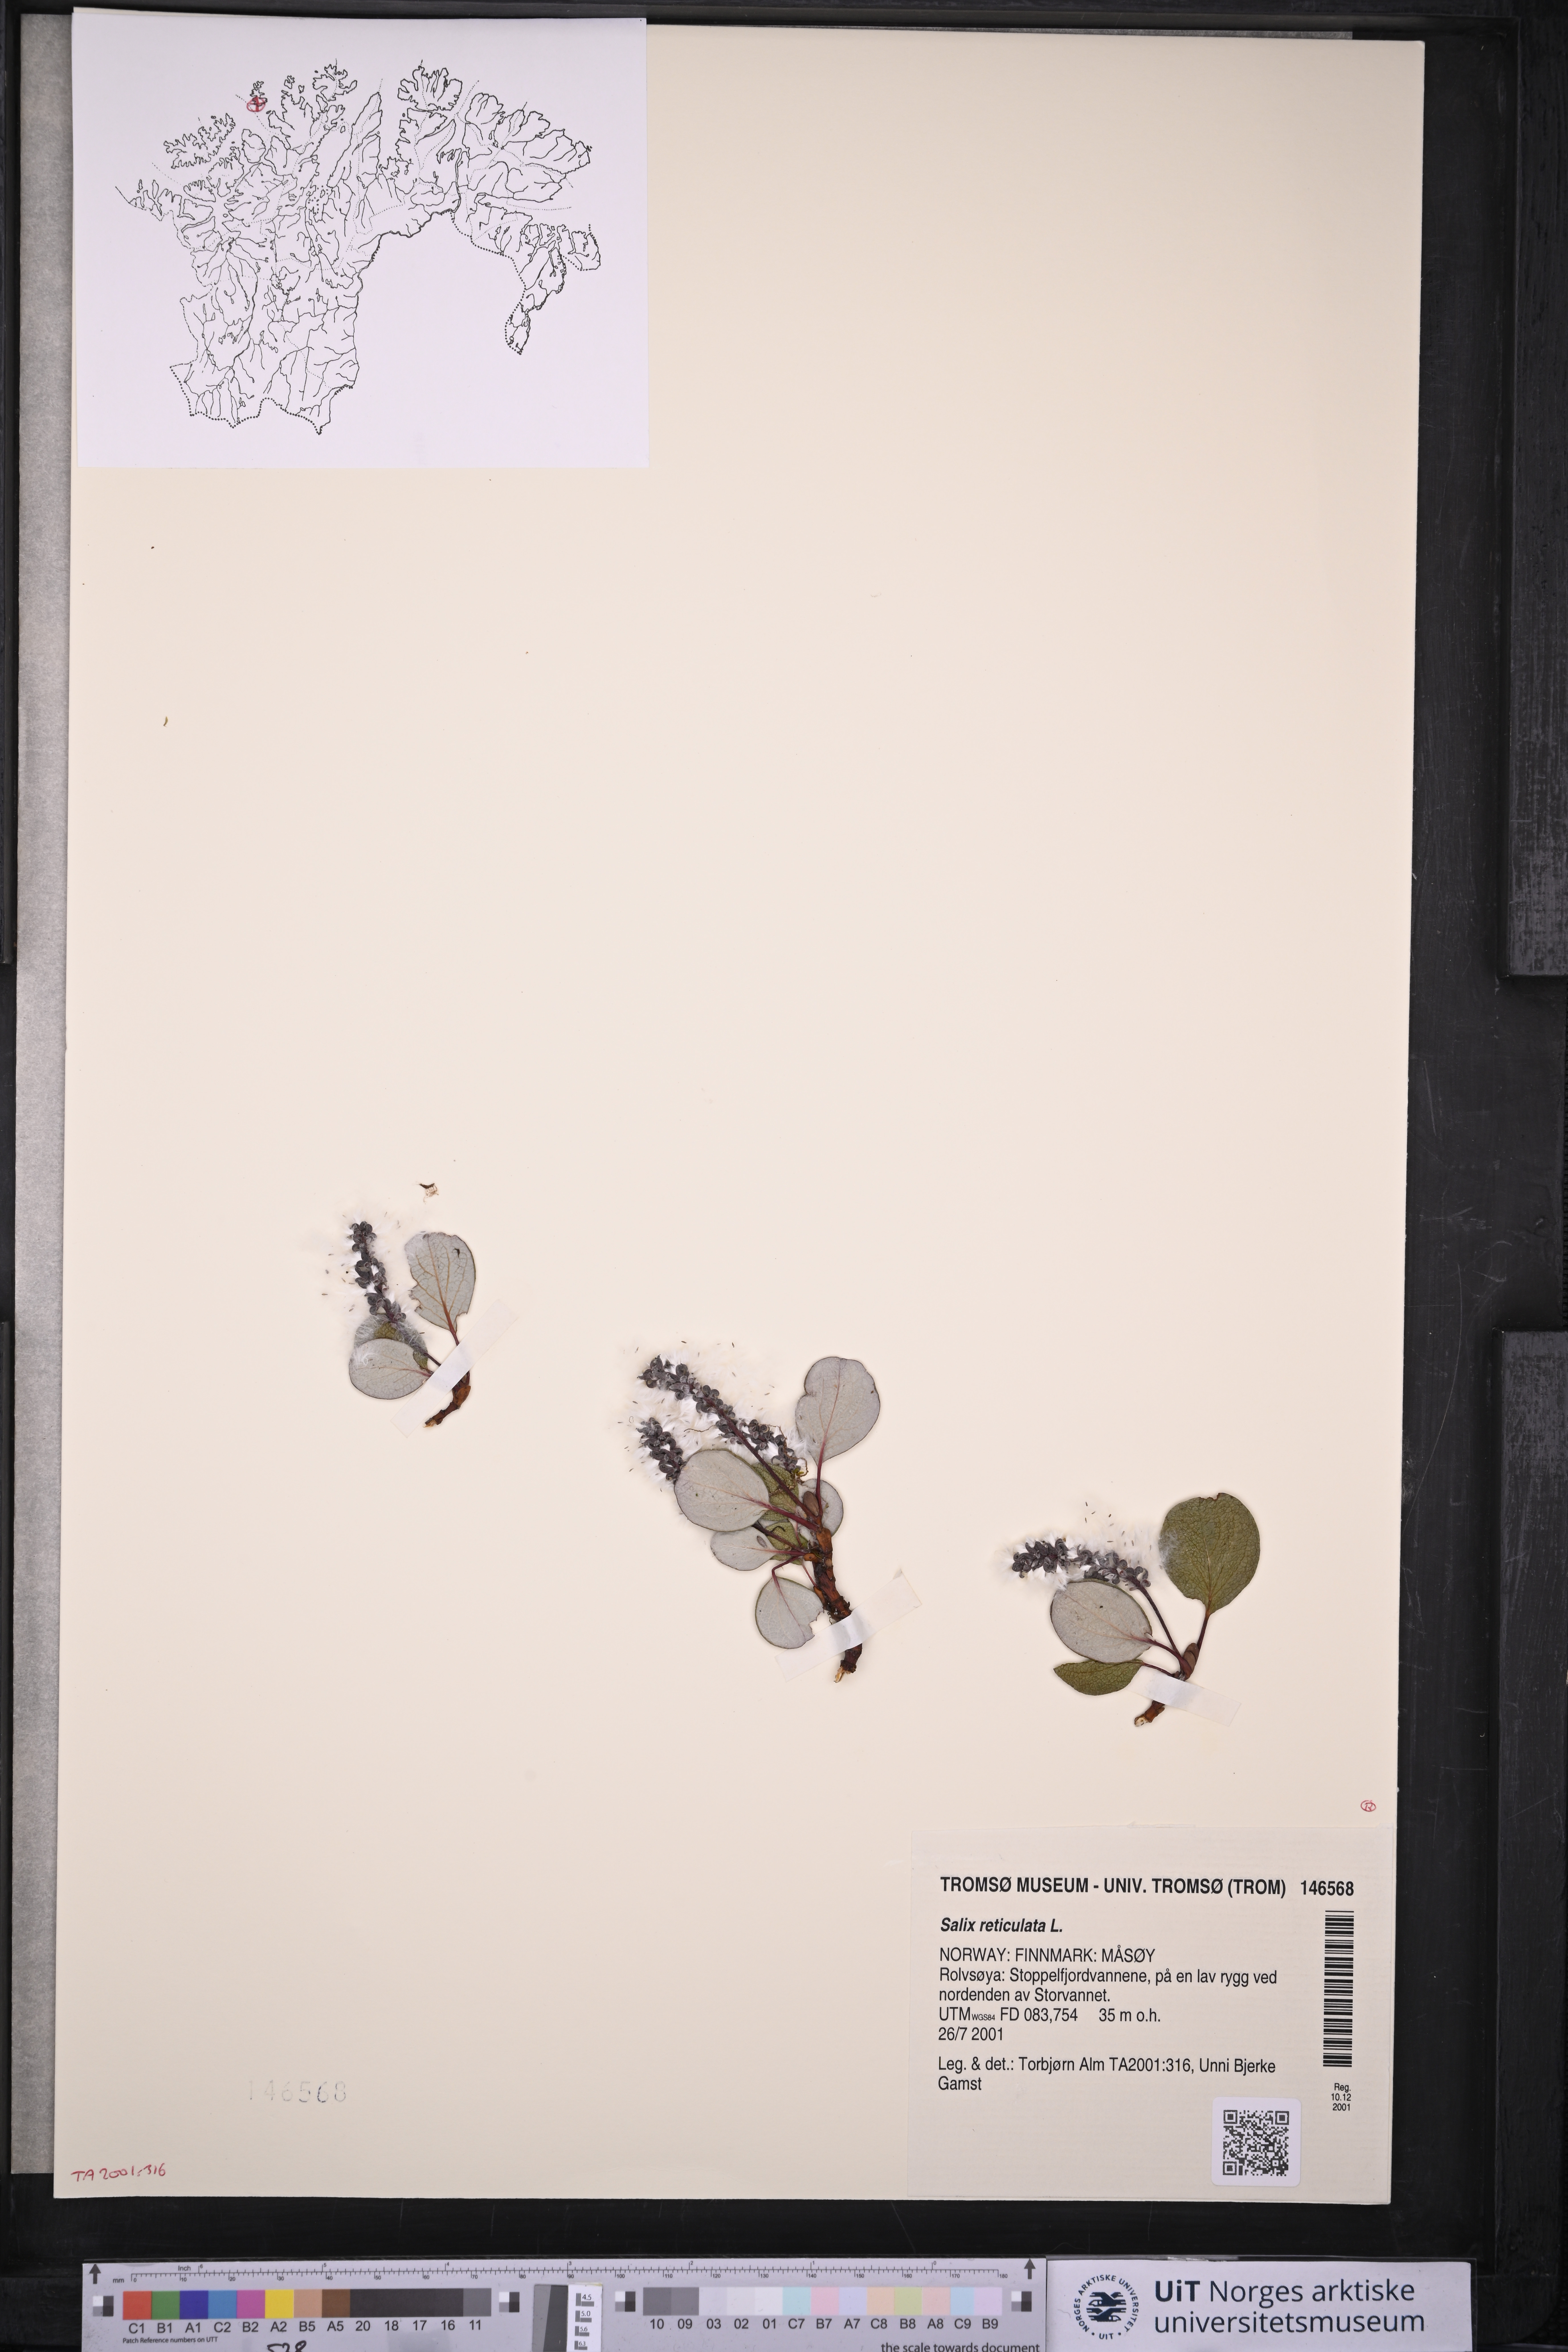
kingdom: Plantae
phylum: Tracheophyta
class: Magnoliopsida
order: Malpighiales
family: Salicaceae
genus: Salix
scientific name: Salix reticulata
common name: Net-leaved willow
